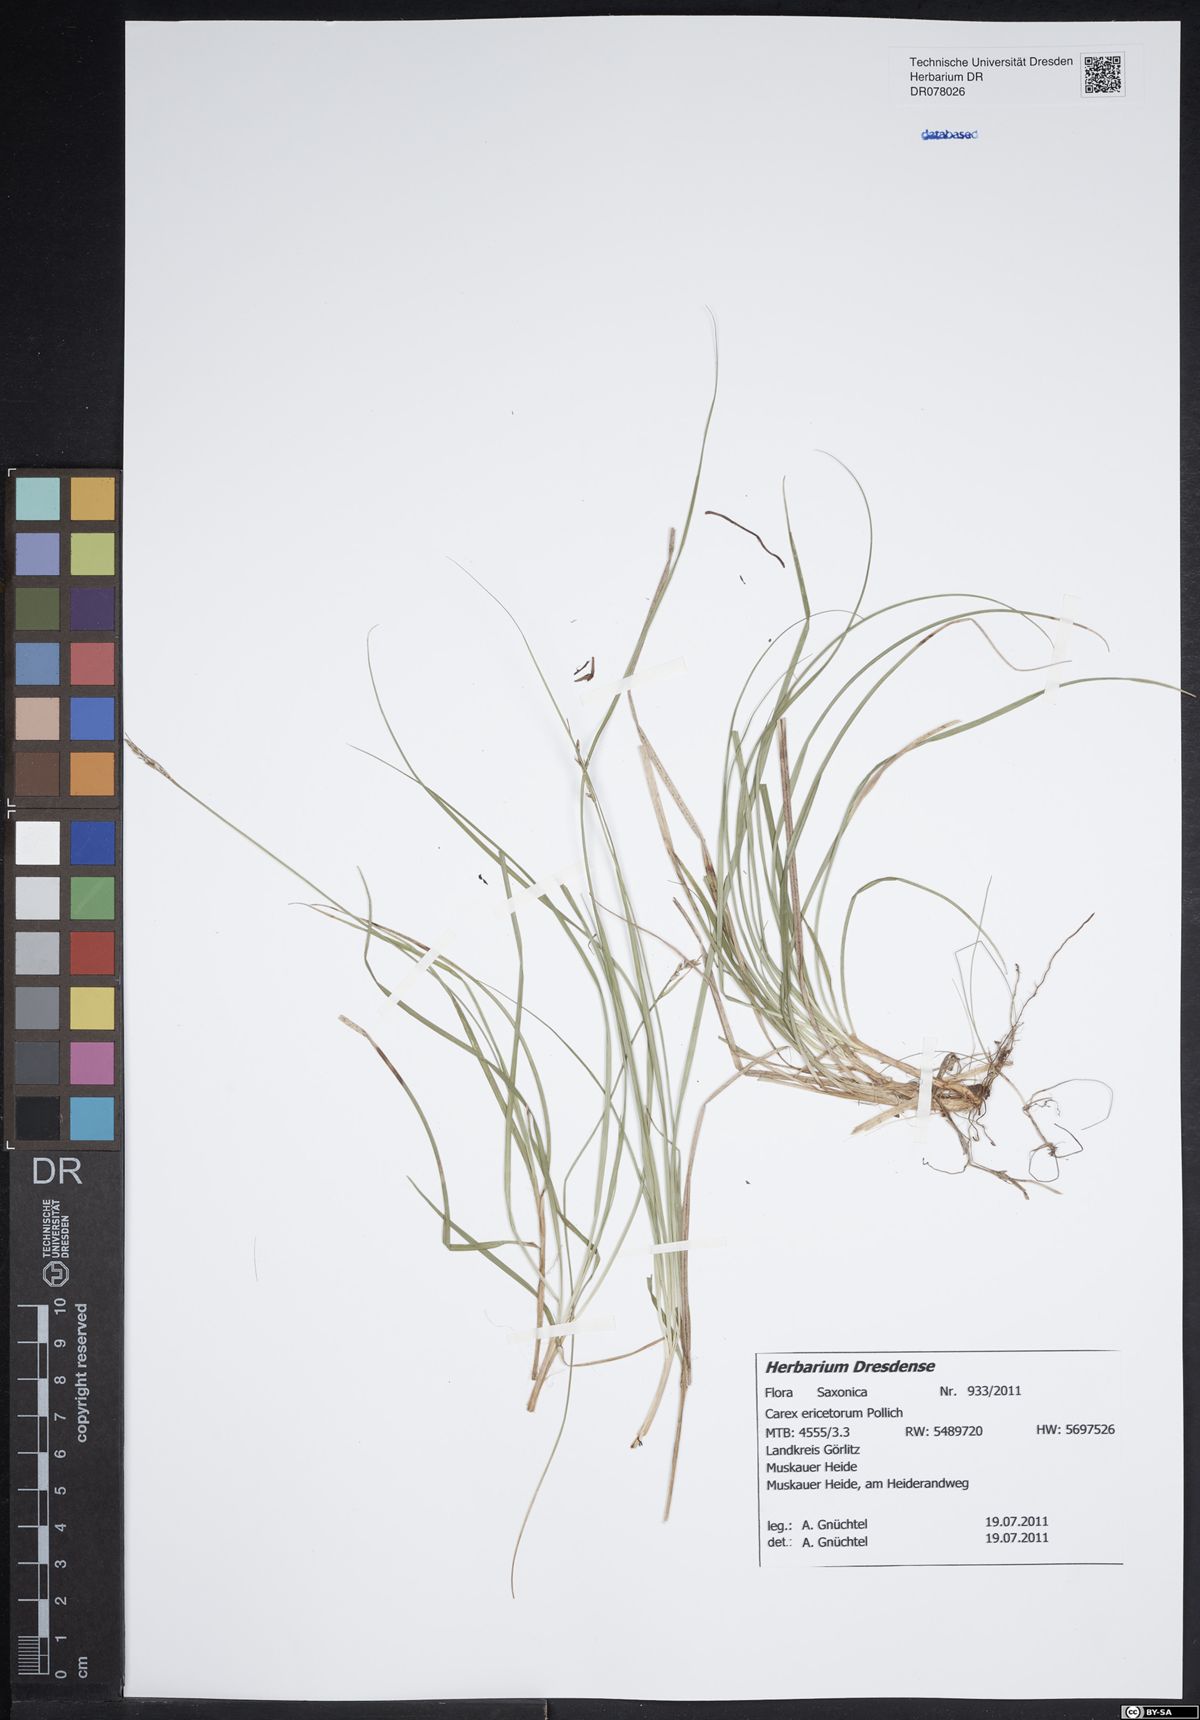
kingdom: Plantae
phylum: Tracheophyta
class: Liliopsida
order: Poales
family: Cyperaceae
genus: Carex
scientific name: Carex ericetorum
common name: Rare spring-sedge
